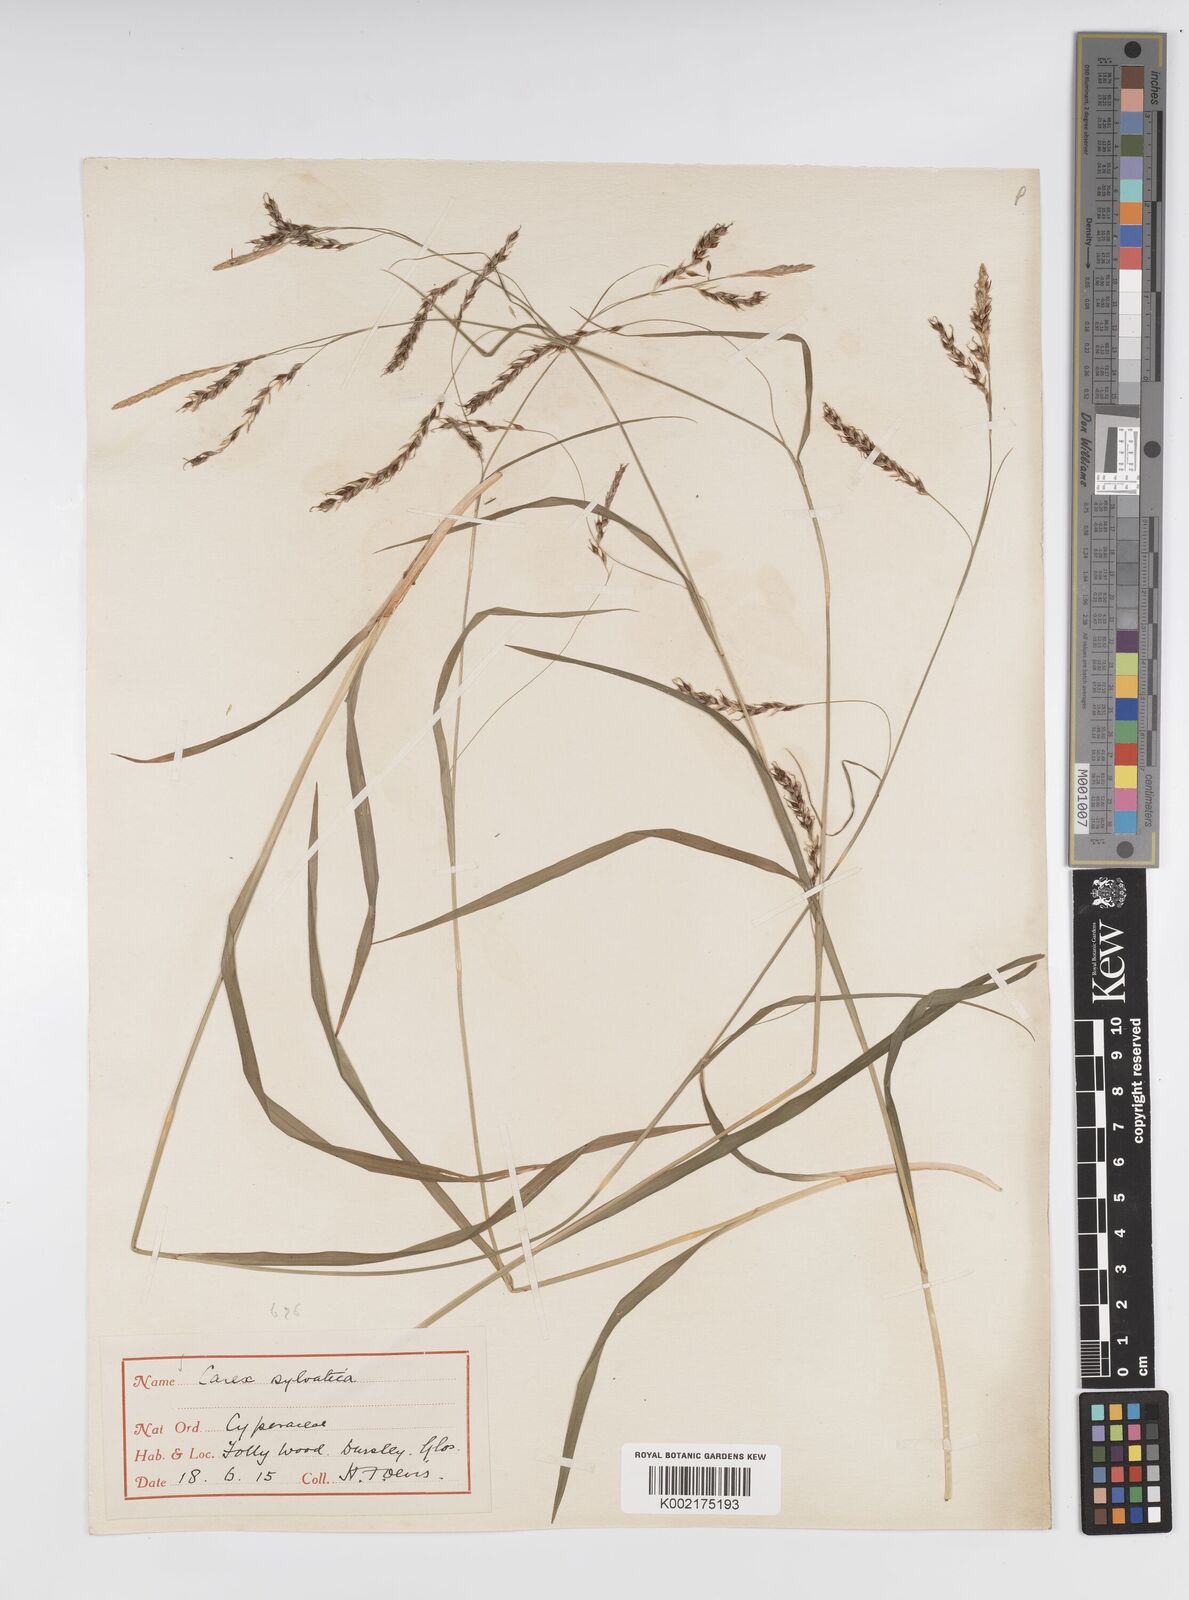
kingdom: Plantae
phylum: Tracheophyta
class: Liliopsida
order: Poales
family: Cyperaceae
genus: Carex
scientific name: Carex sylvatica
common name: Wood-sedge
